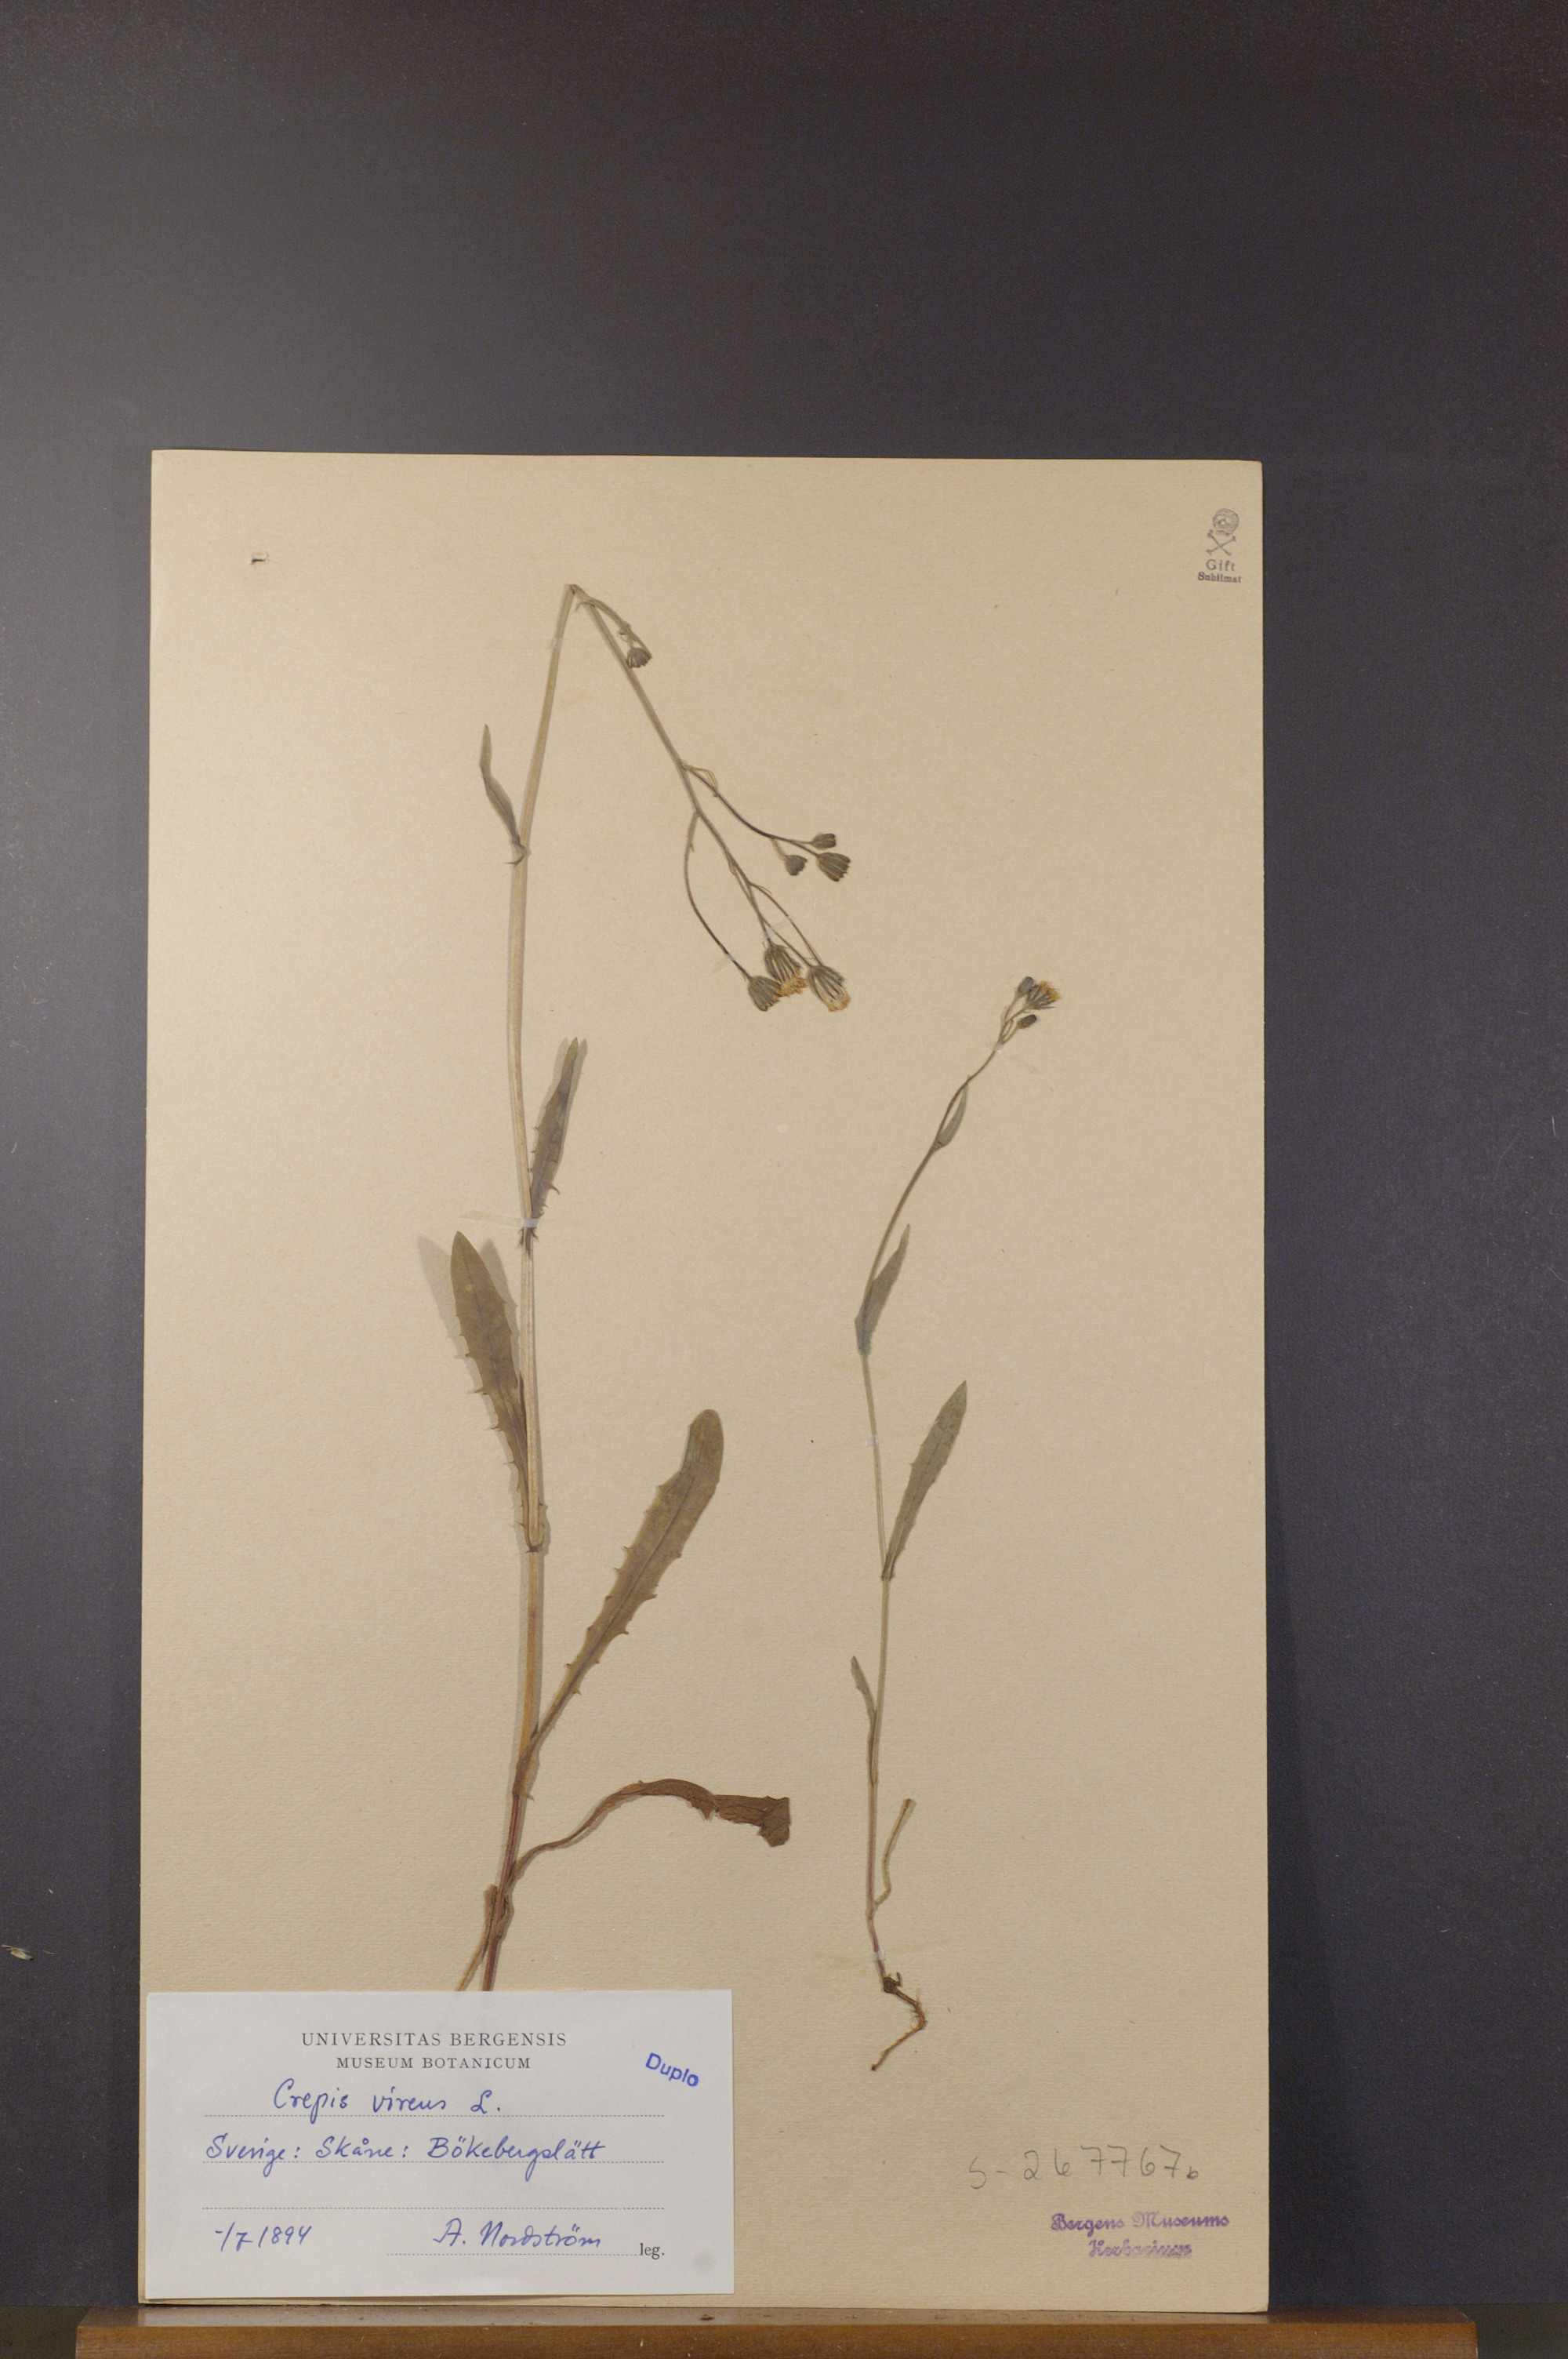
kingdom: Plantae
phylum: Tracheophyta
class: Magnoliopsida
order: Asterales
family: Asteraceae
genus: Crepis
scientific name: Crepis capillaris
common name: Smooth hawksbeard
